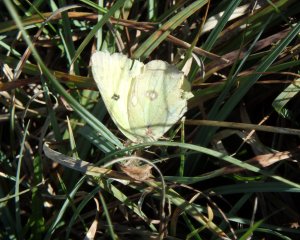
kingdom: Animalia
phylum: Arthropoda
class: Insecta
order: Lepidoptera
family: Pieridae
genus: Colias
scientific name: Colias philodice
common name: Clouded Sulphur
